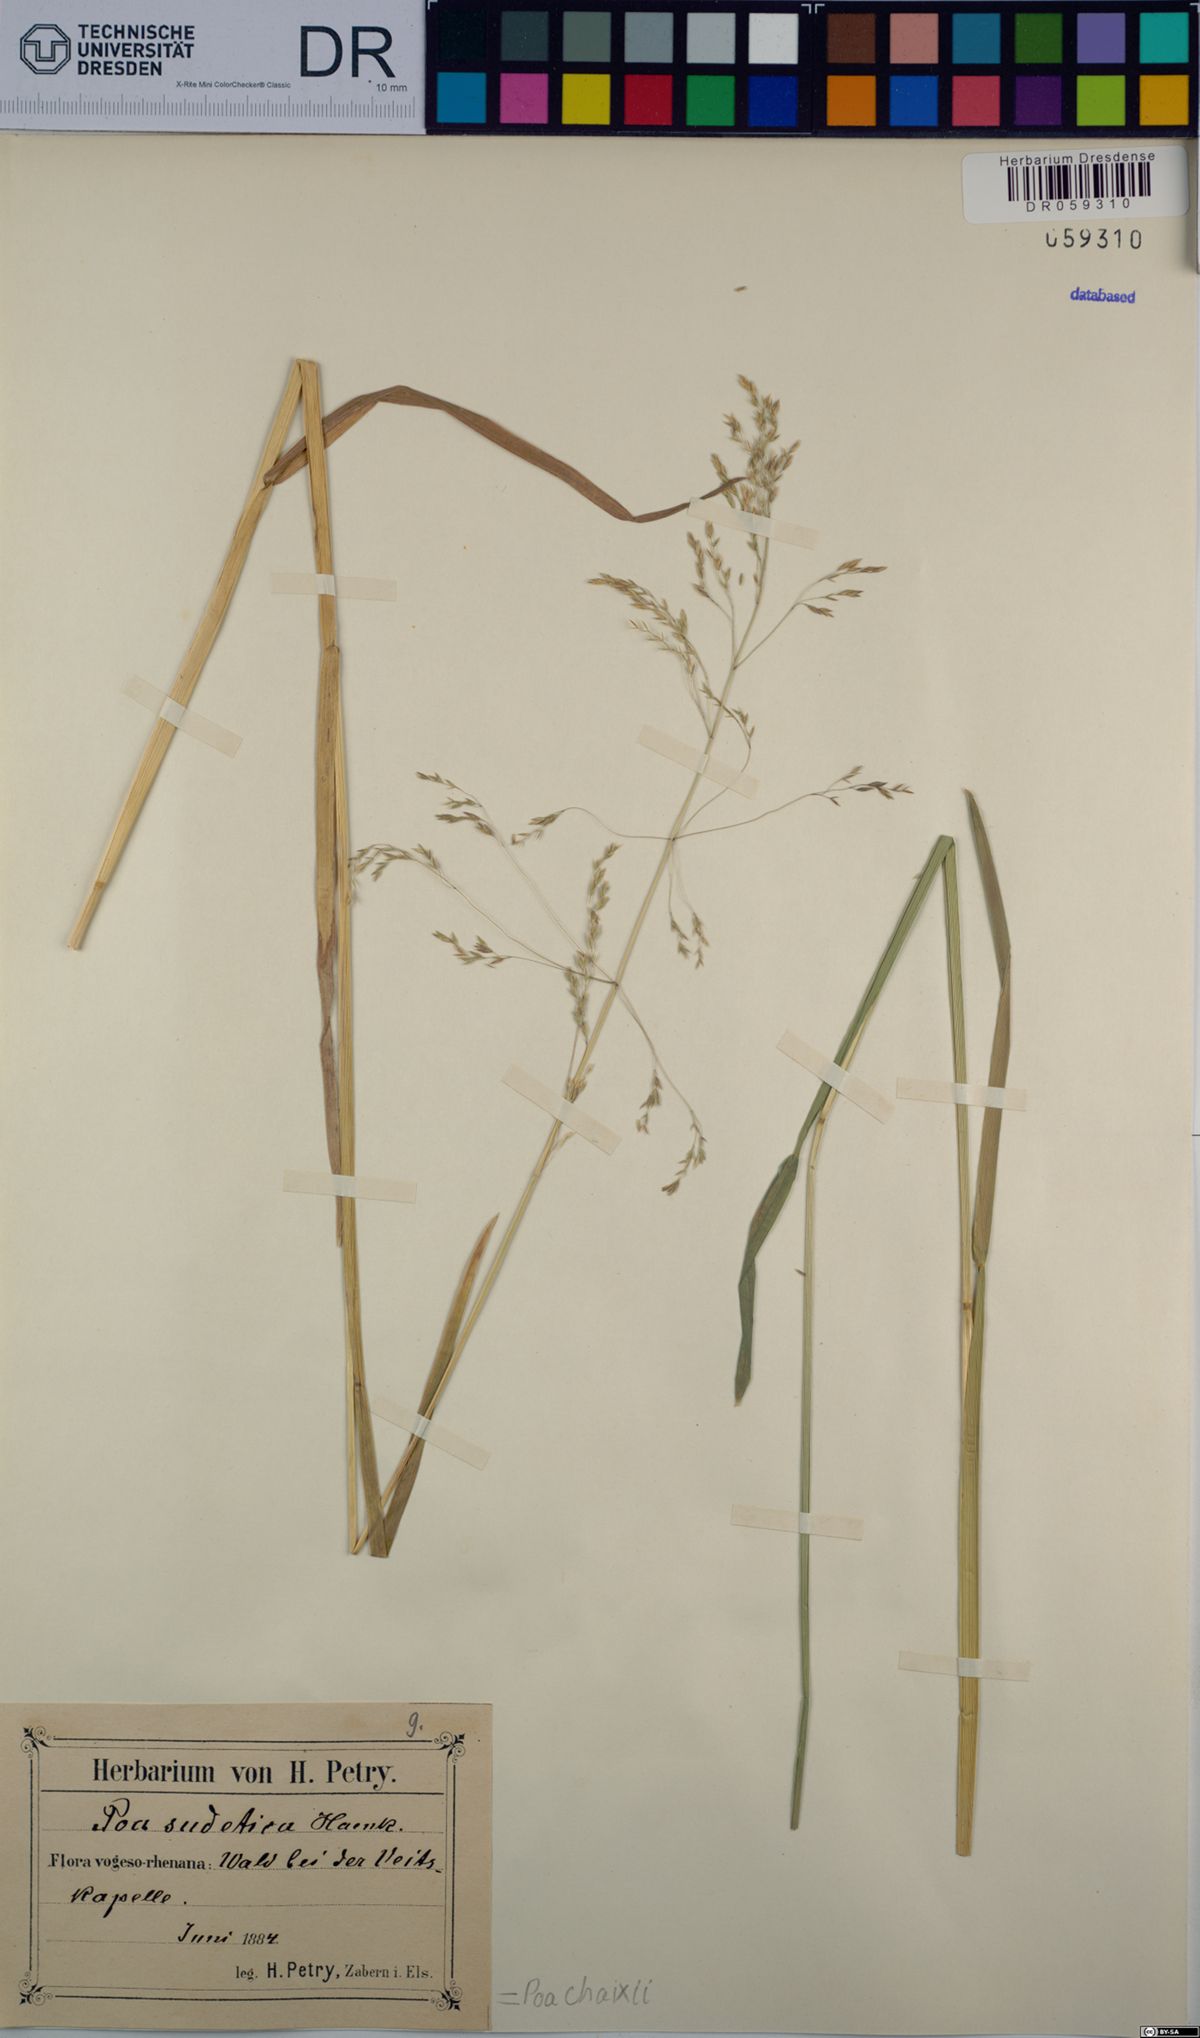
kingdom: Plantae
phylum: Tracheophyta
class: Liliopsida
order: Poales
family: Poaceae
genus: Poa
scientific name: Poa chaixii
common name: Broad-leaved meadow-grass
